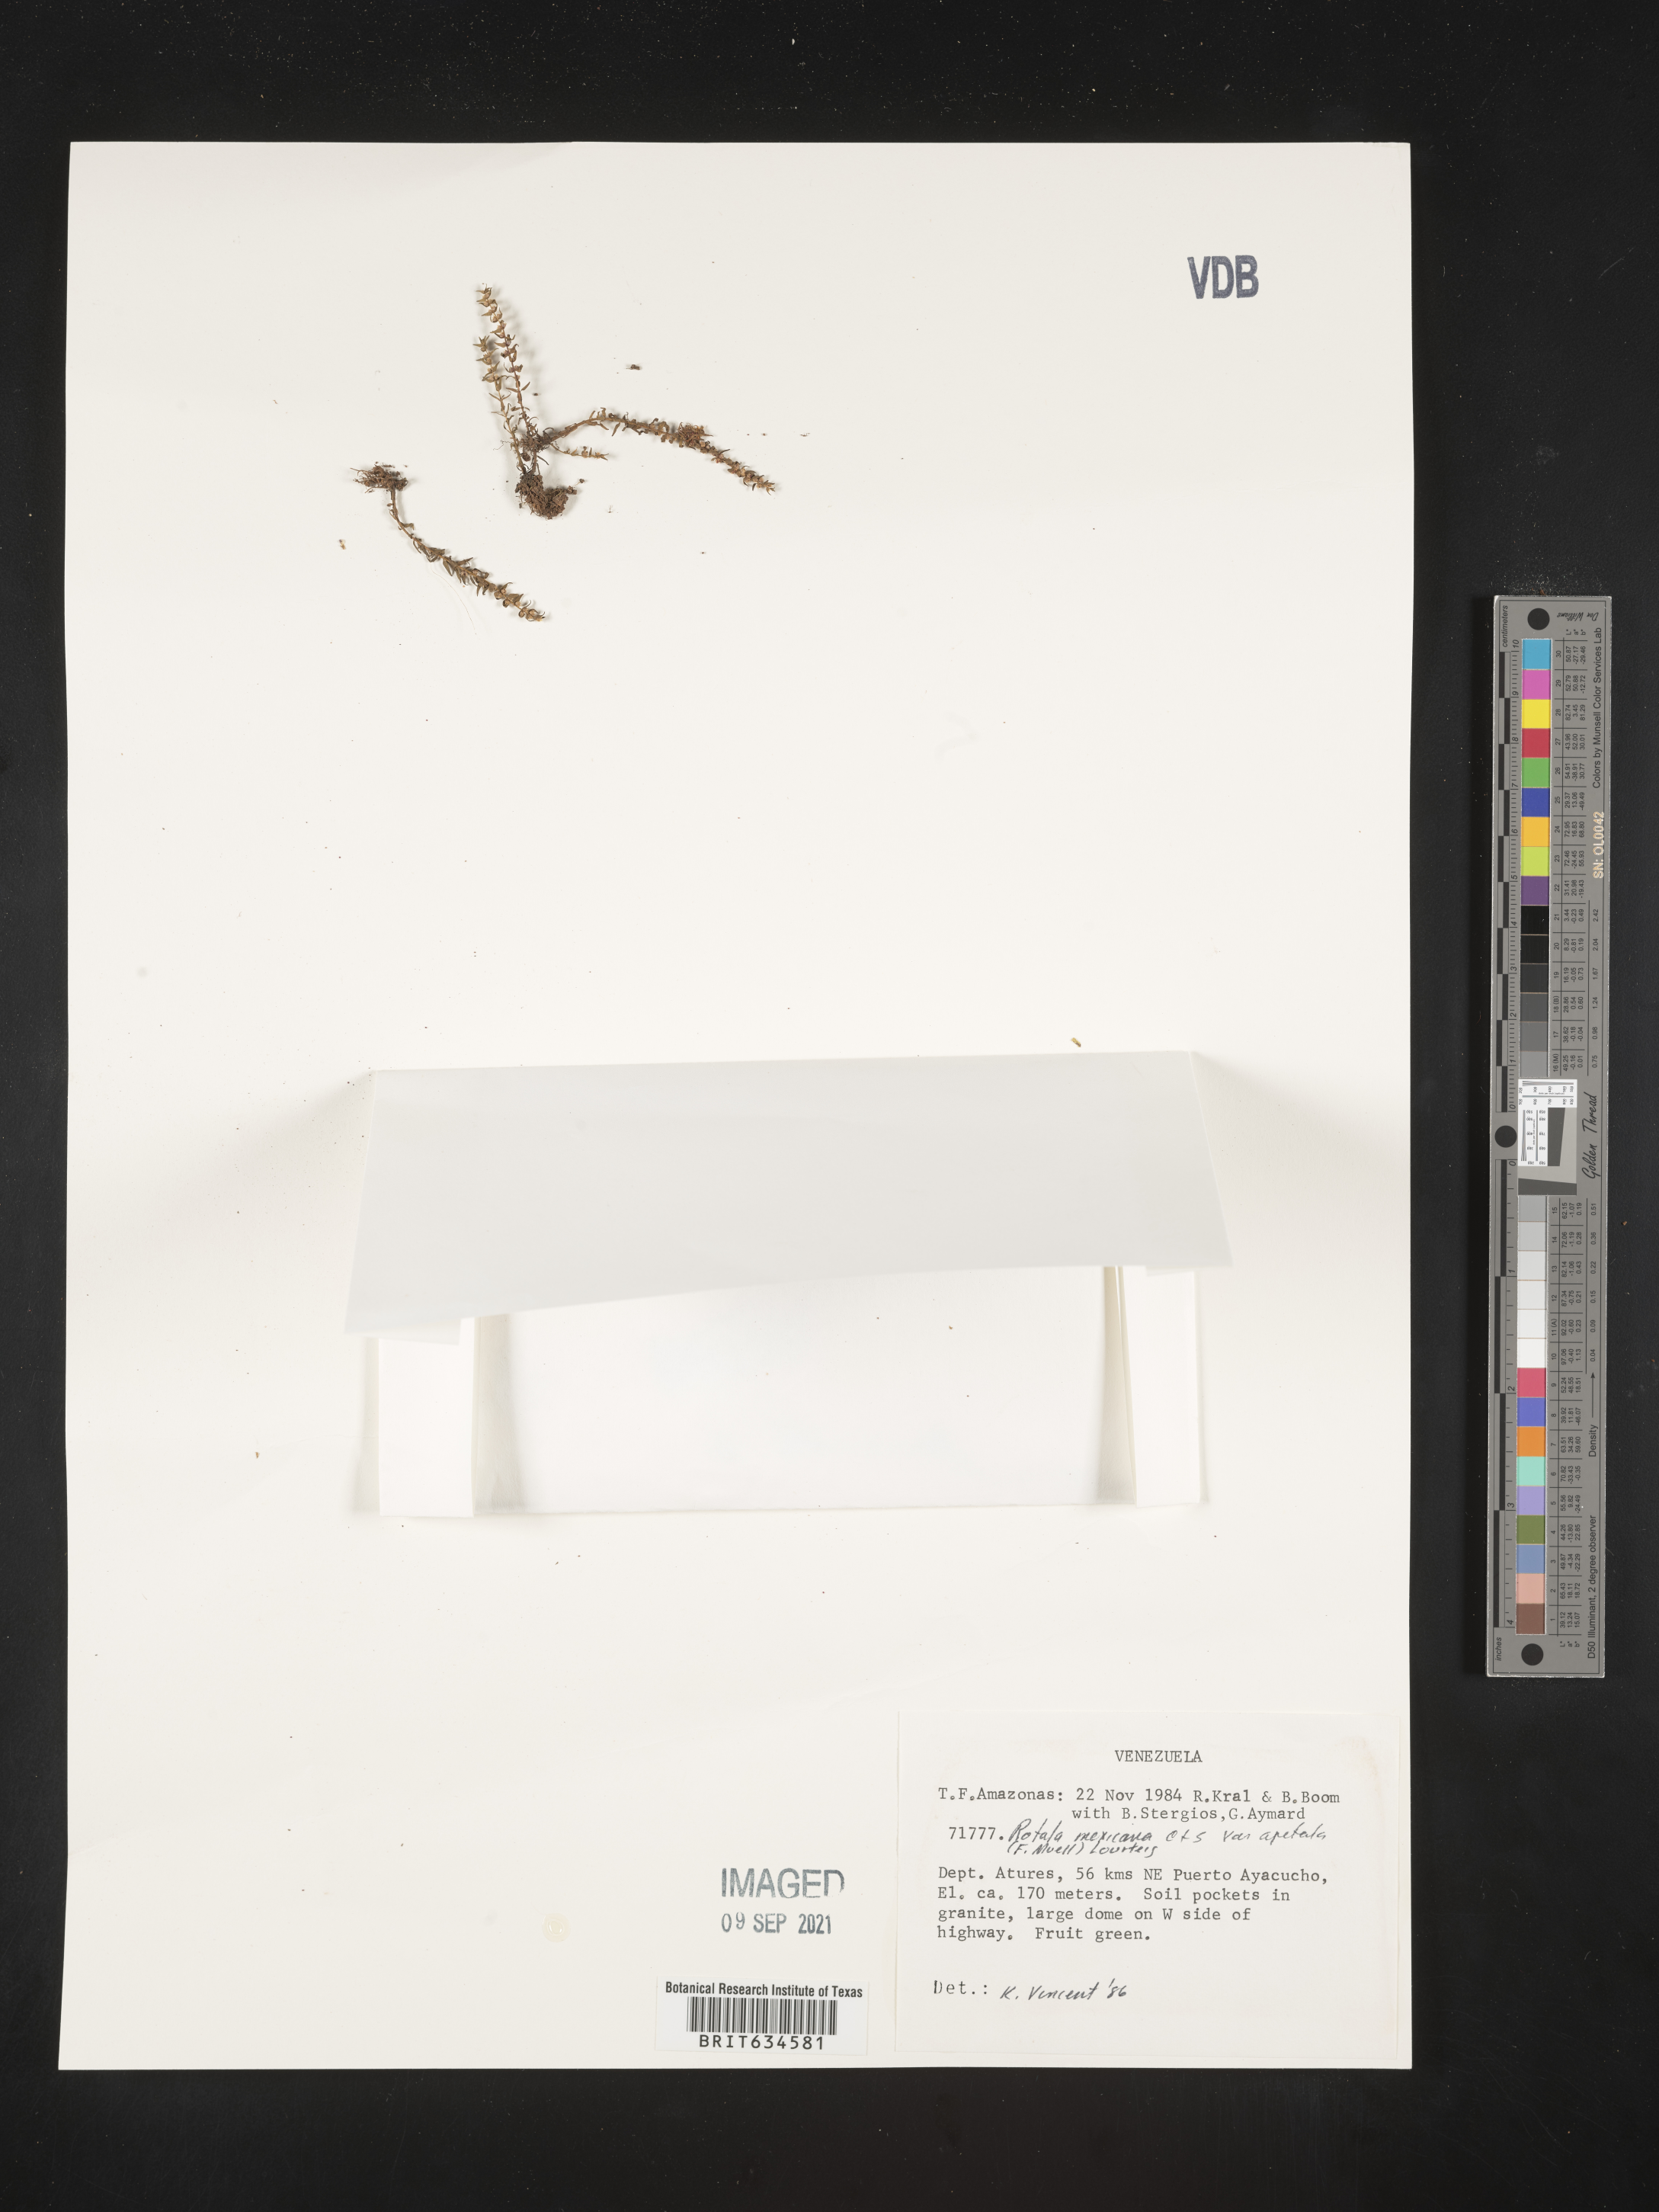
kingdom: Plantae
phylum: Tracheophyta
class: Magnoliopsida
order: Myrtales
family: Lythraceae
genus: Rotala
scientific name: Rotala
